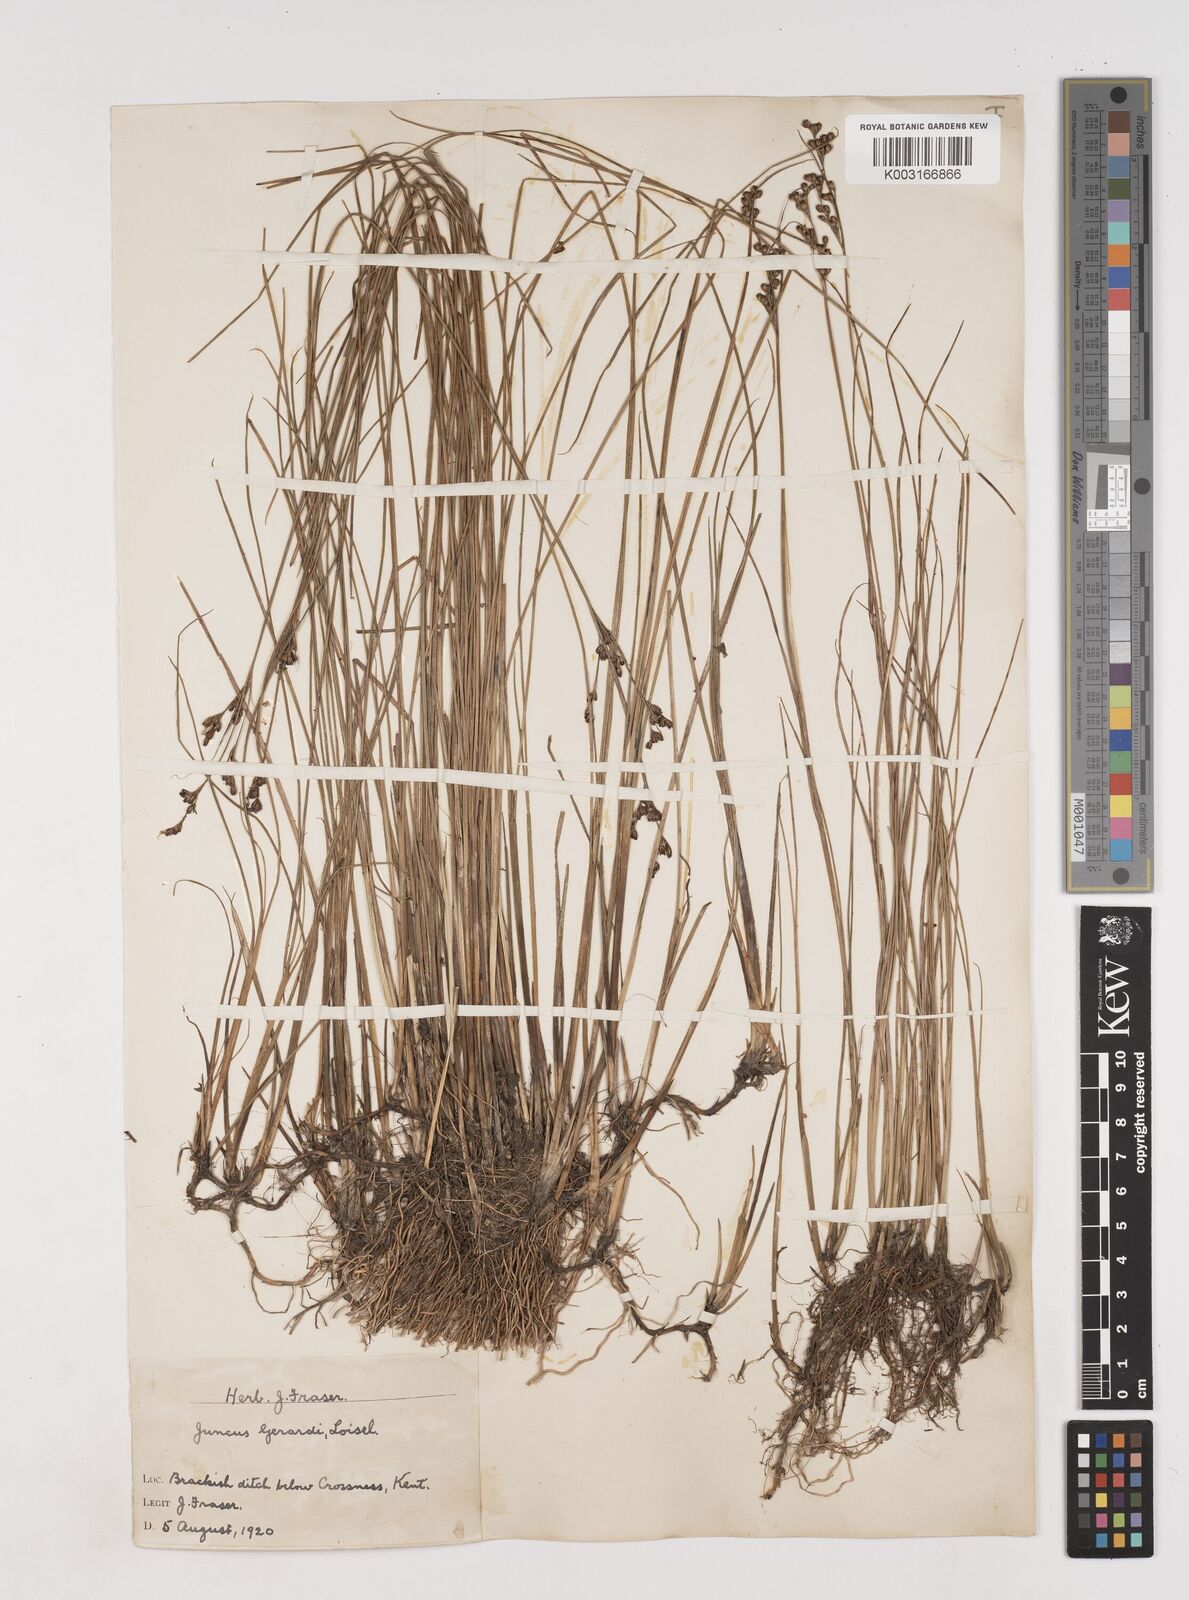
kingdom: Plantae
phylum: Tracheophyta
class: Liliopsida
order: Poales
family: Juncaceae
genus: Juncus
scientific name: Juncus gerardi
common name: Saltmarsh rush
